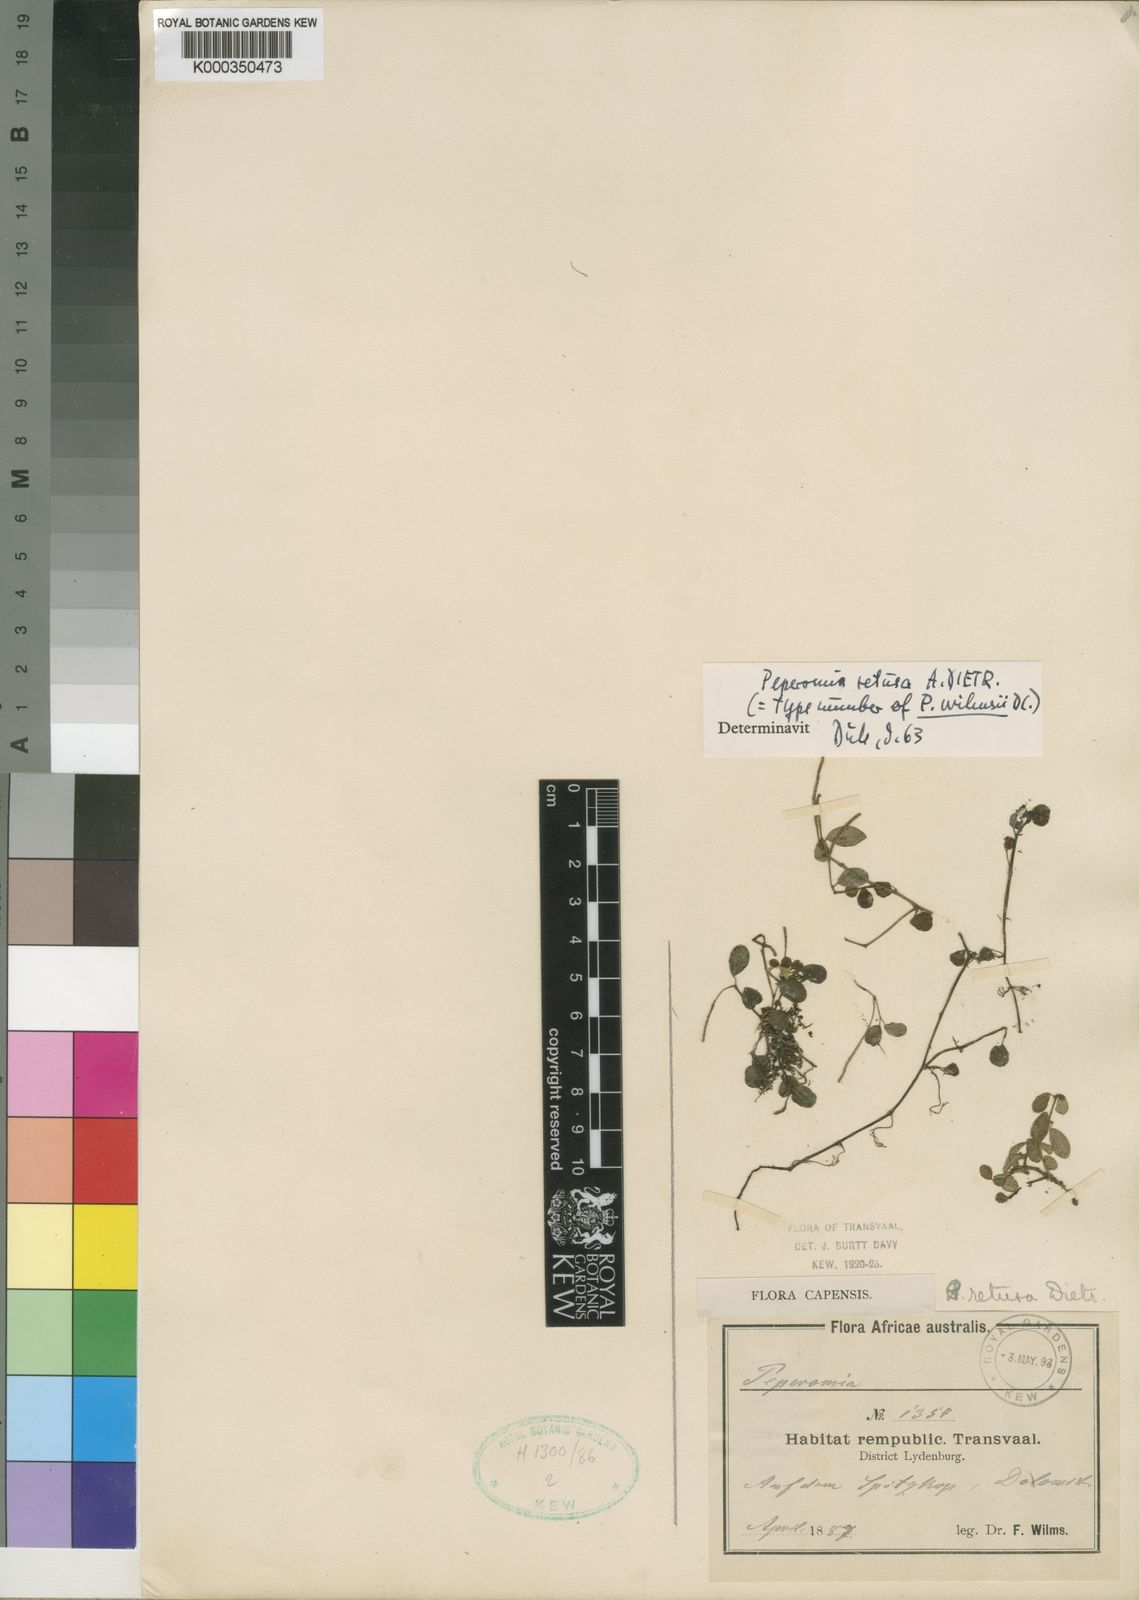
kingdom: Plantae
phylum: Tracheophyta
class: Magnoliopsida
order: Piperales
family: Piperaceae
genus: Peperomia
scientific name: Peperomia retusa
